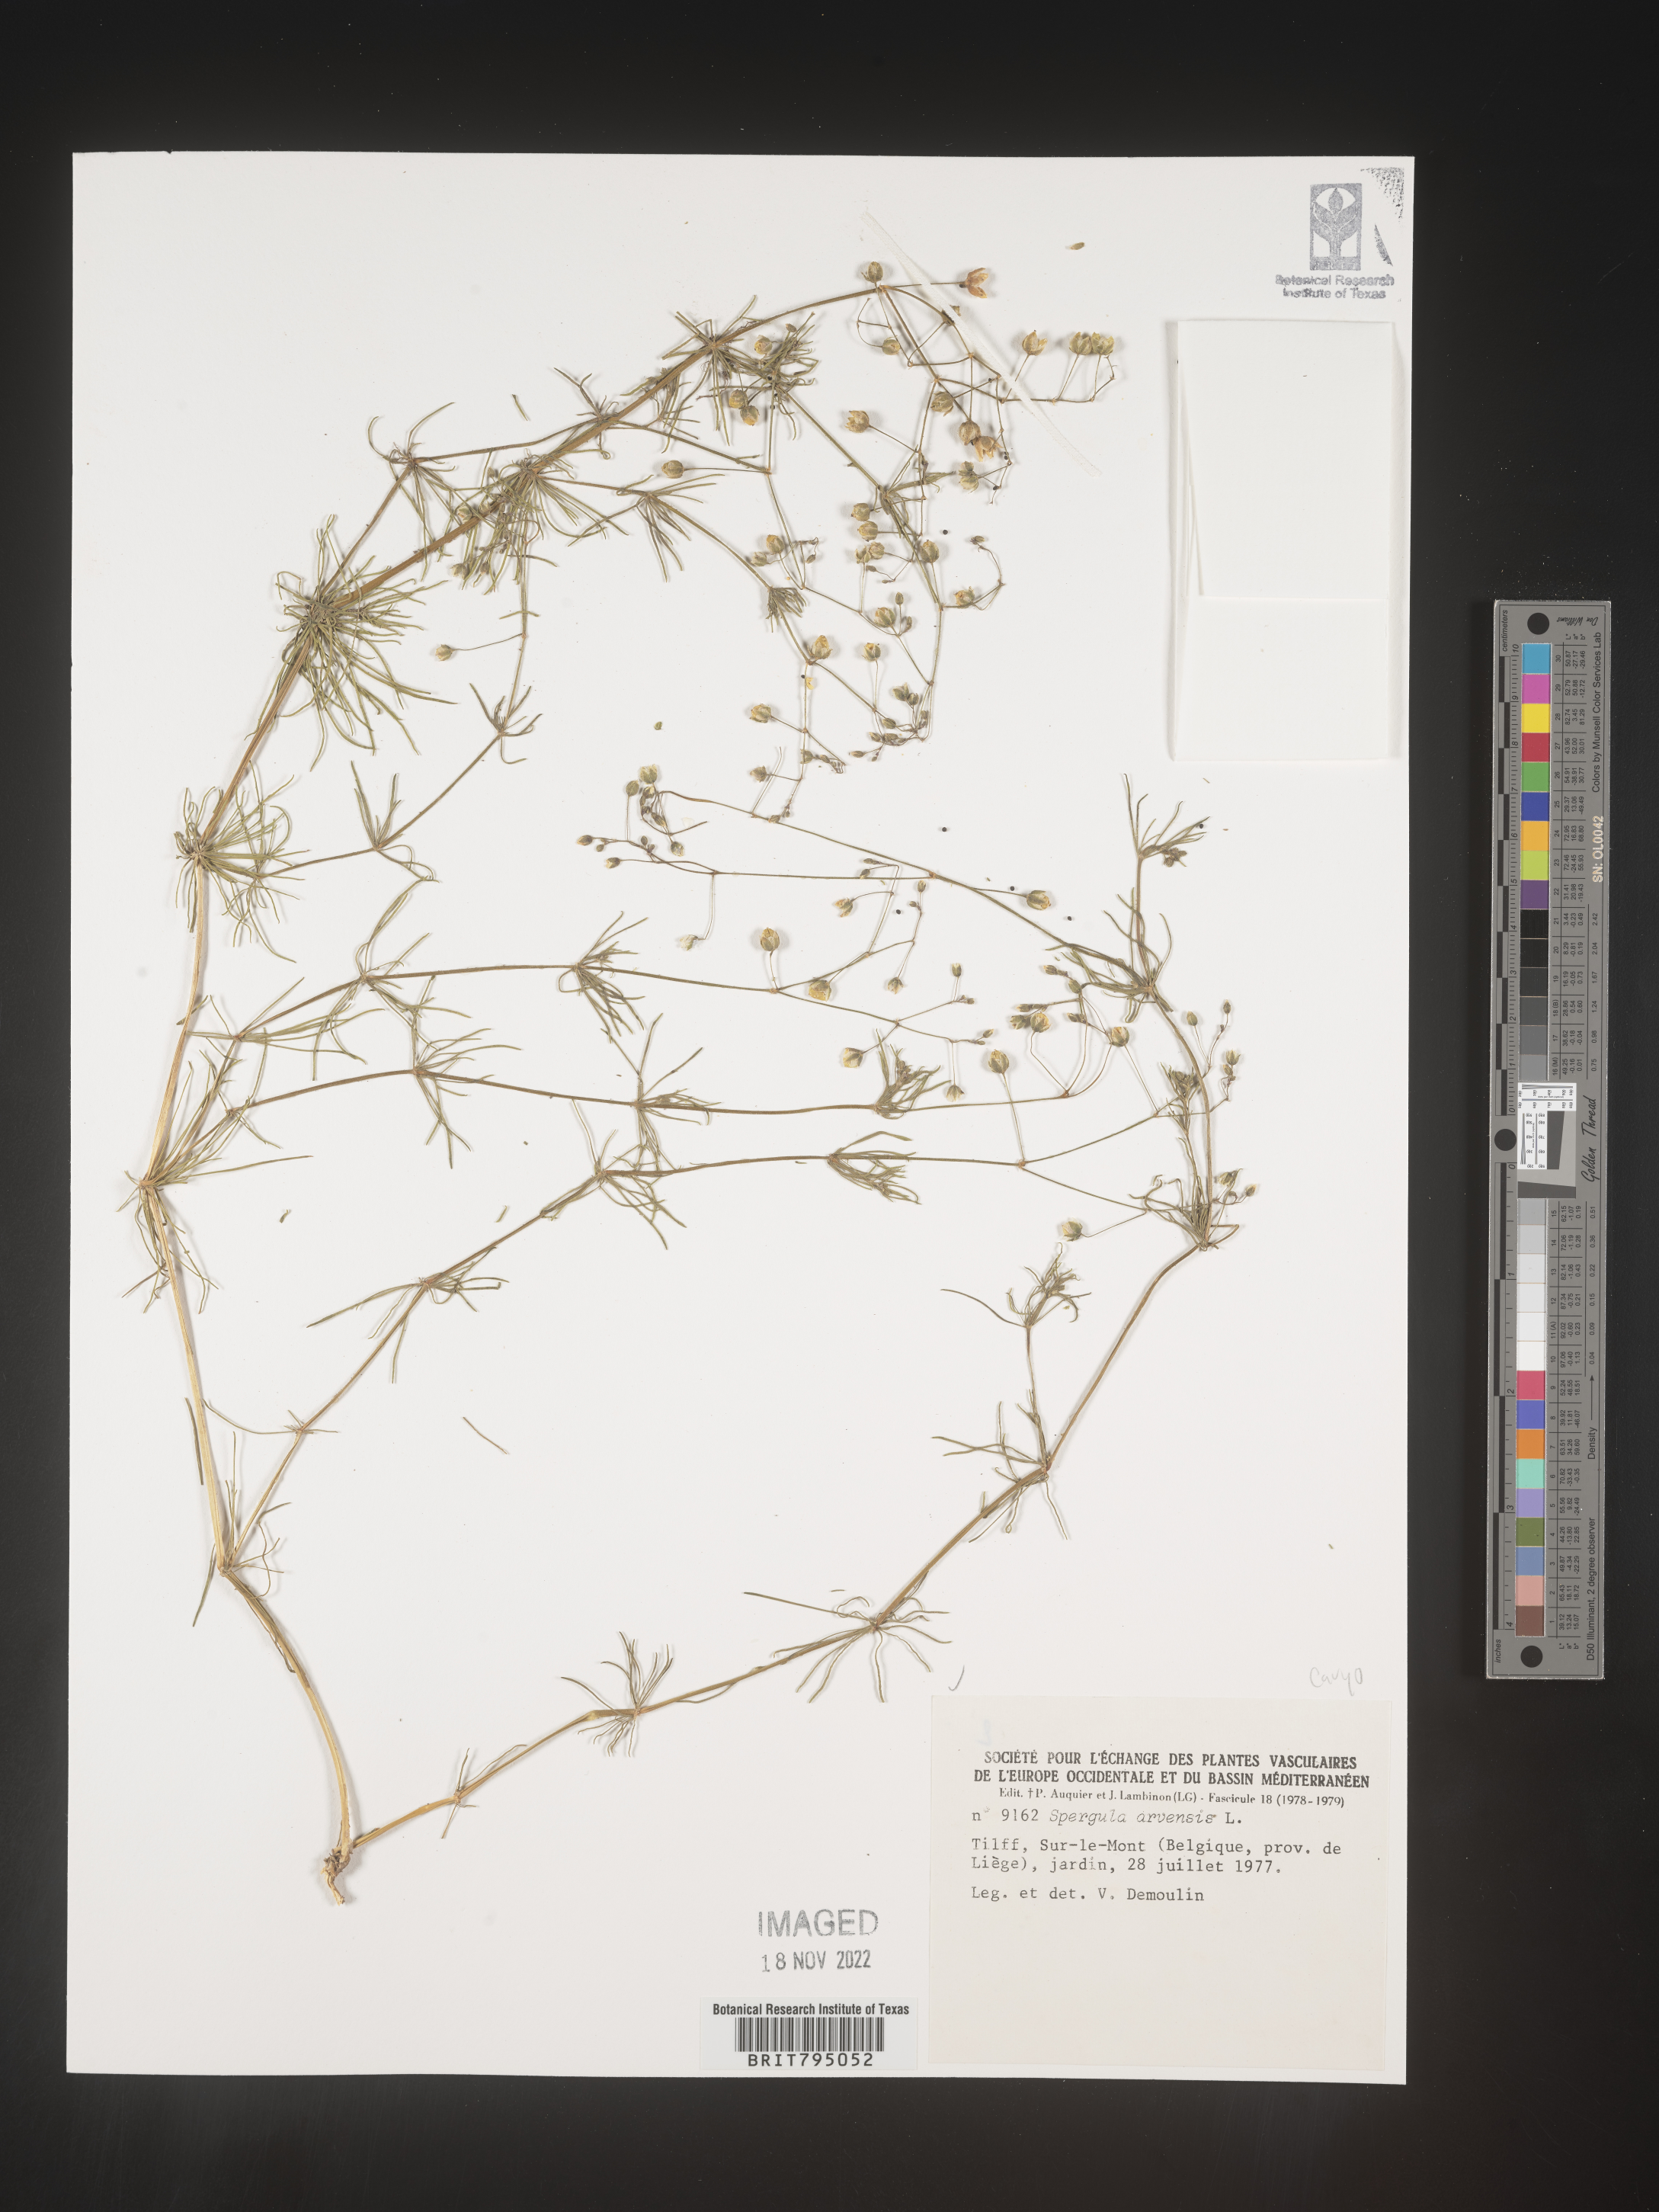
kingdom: Plantae
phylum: Tracheophyta
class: Magnoliopsida
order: Caryophyllales
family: Caryophyllaceae
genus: Spergula
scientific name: Spergula arvensis
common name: Corn spurrey
